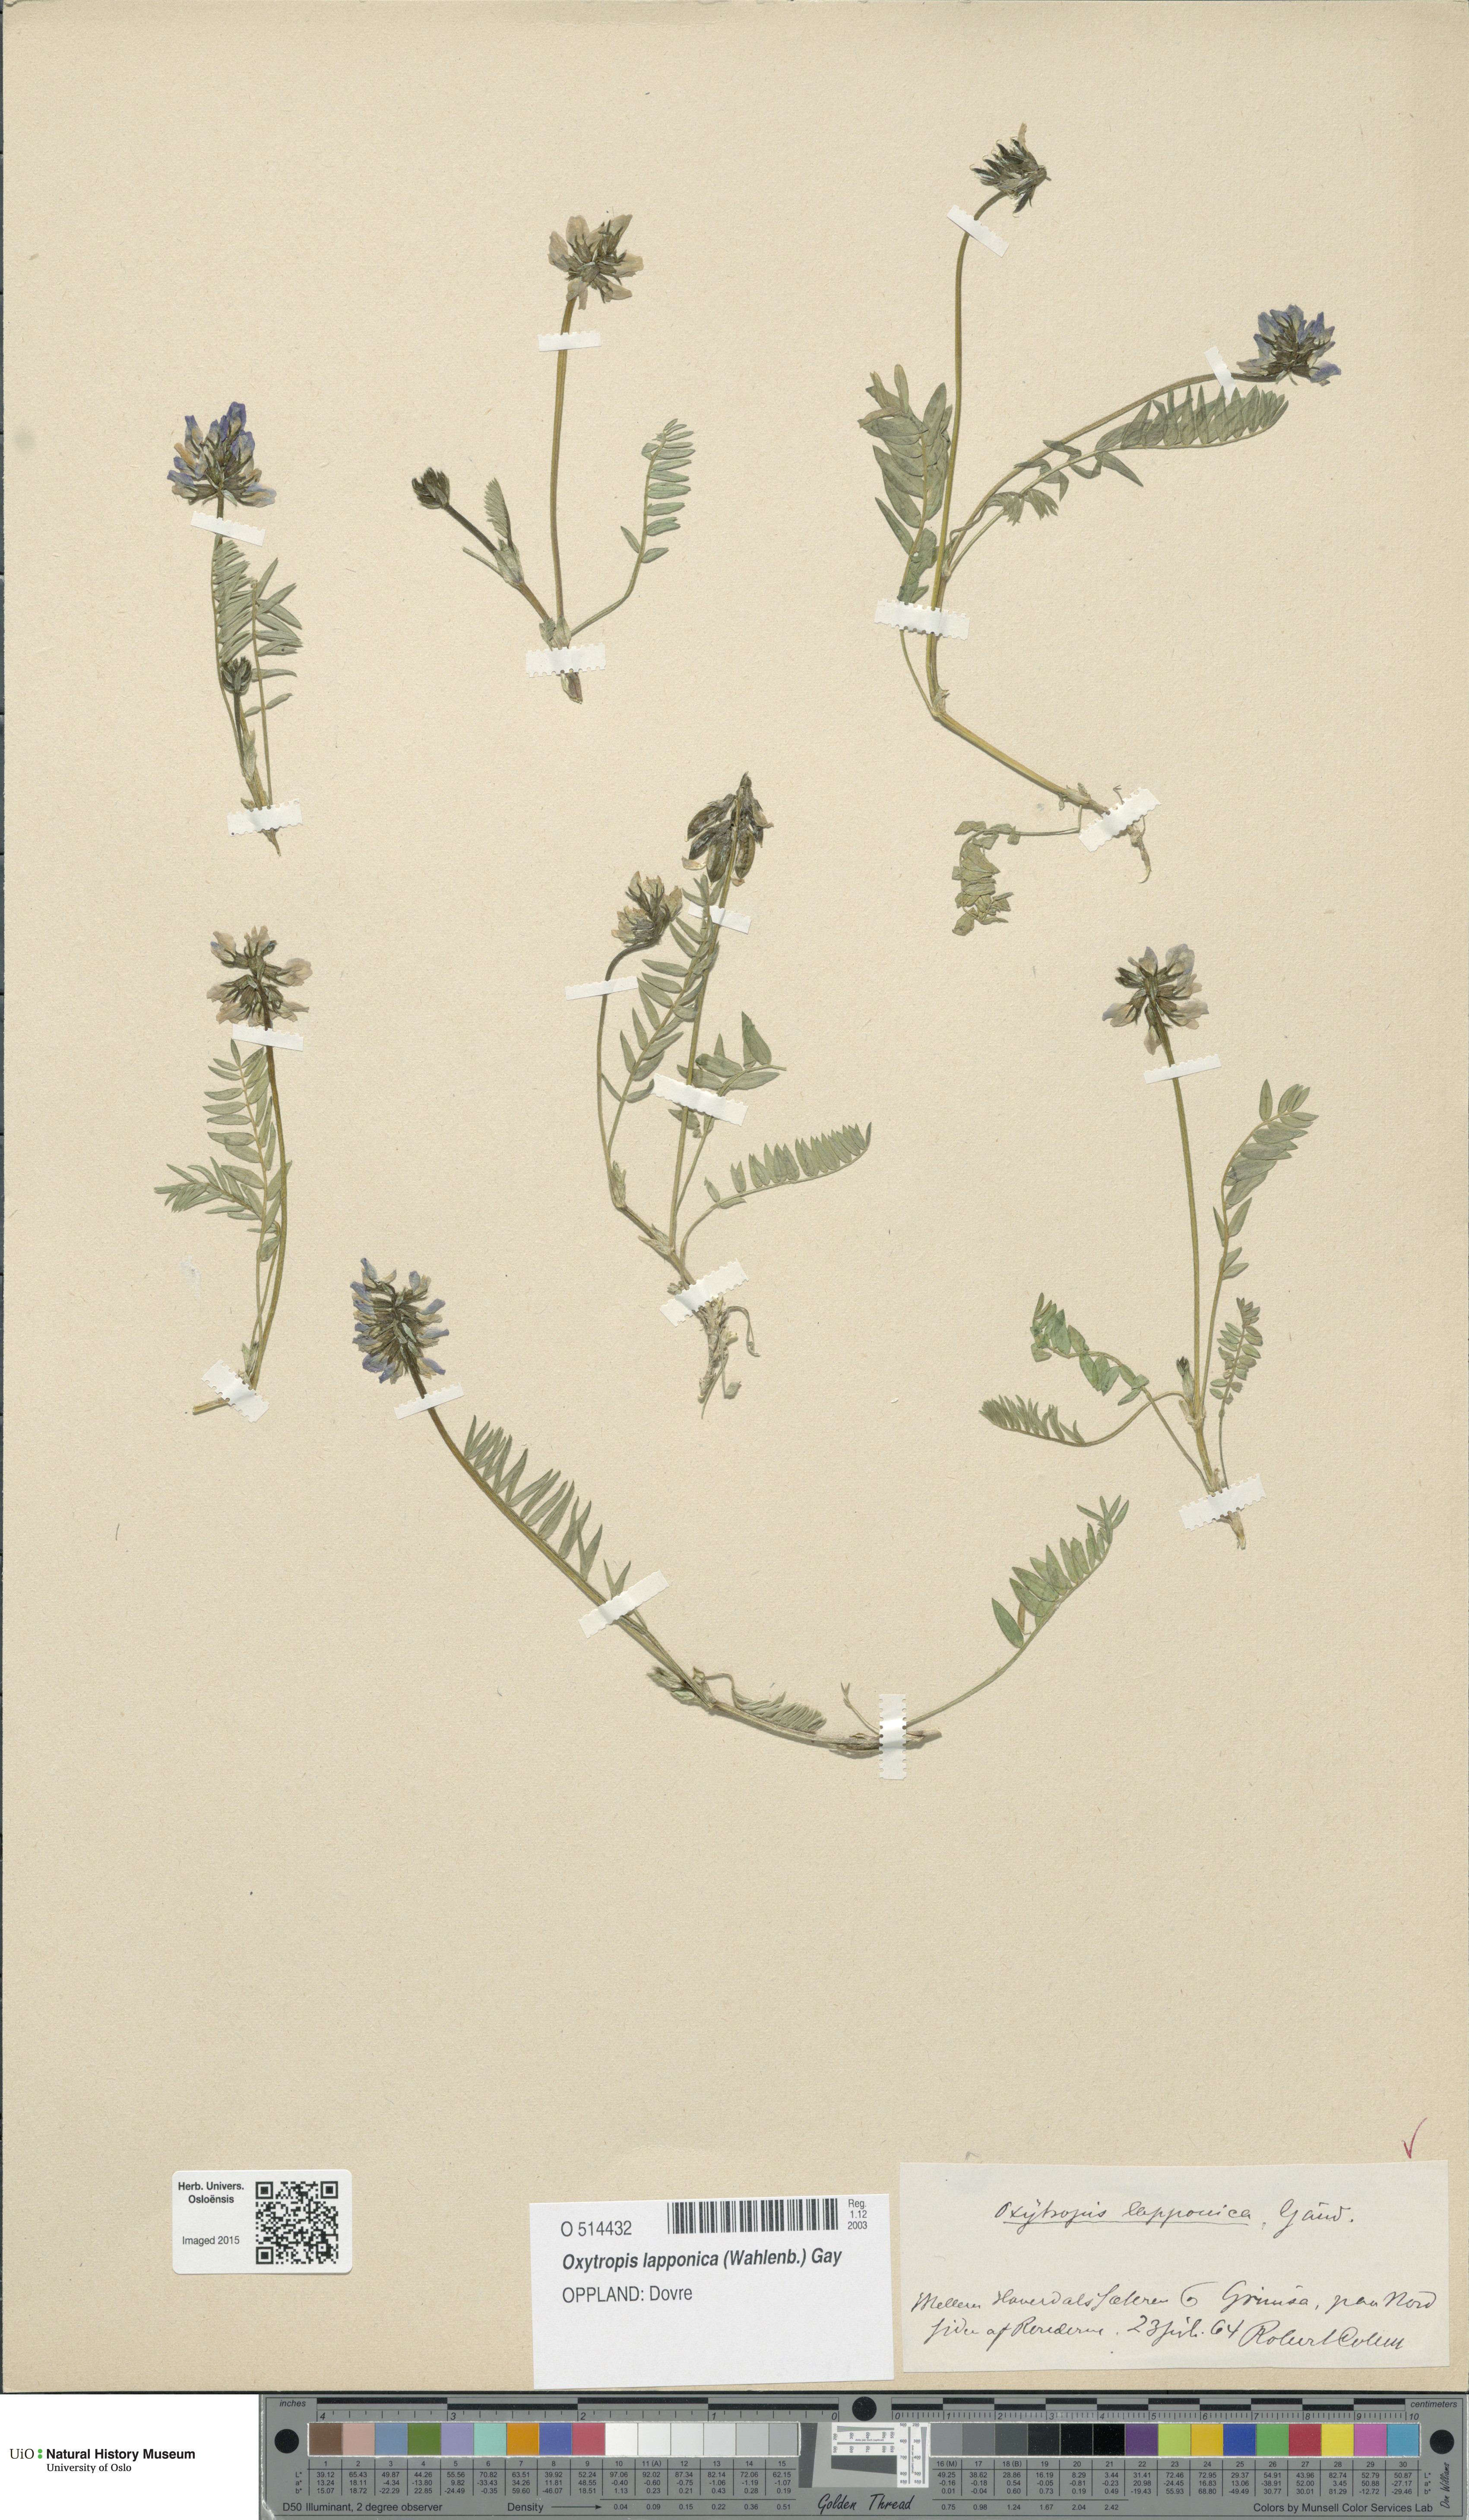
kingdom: Plantae
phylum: Tracheophyta
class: Magnoliopsida
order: Fabales
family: Fabaceae
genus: Oxytropis
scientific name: Oxytropis lapponica
